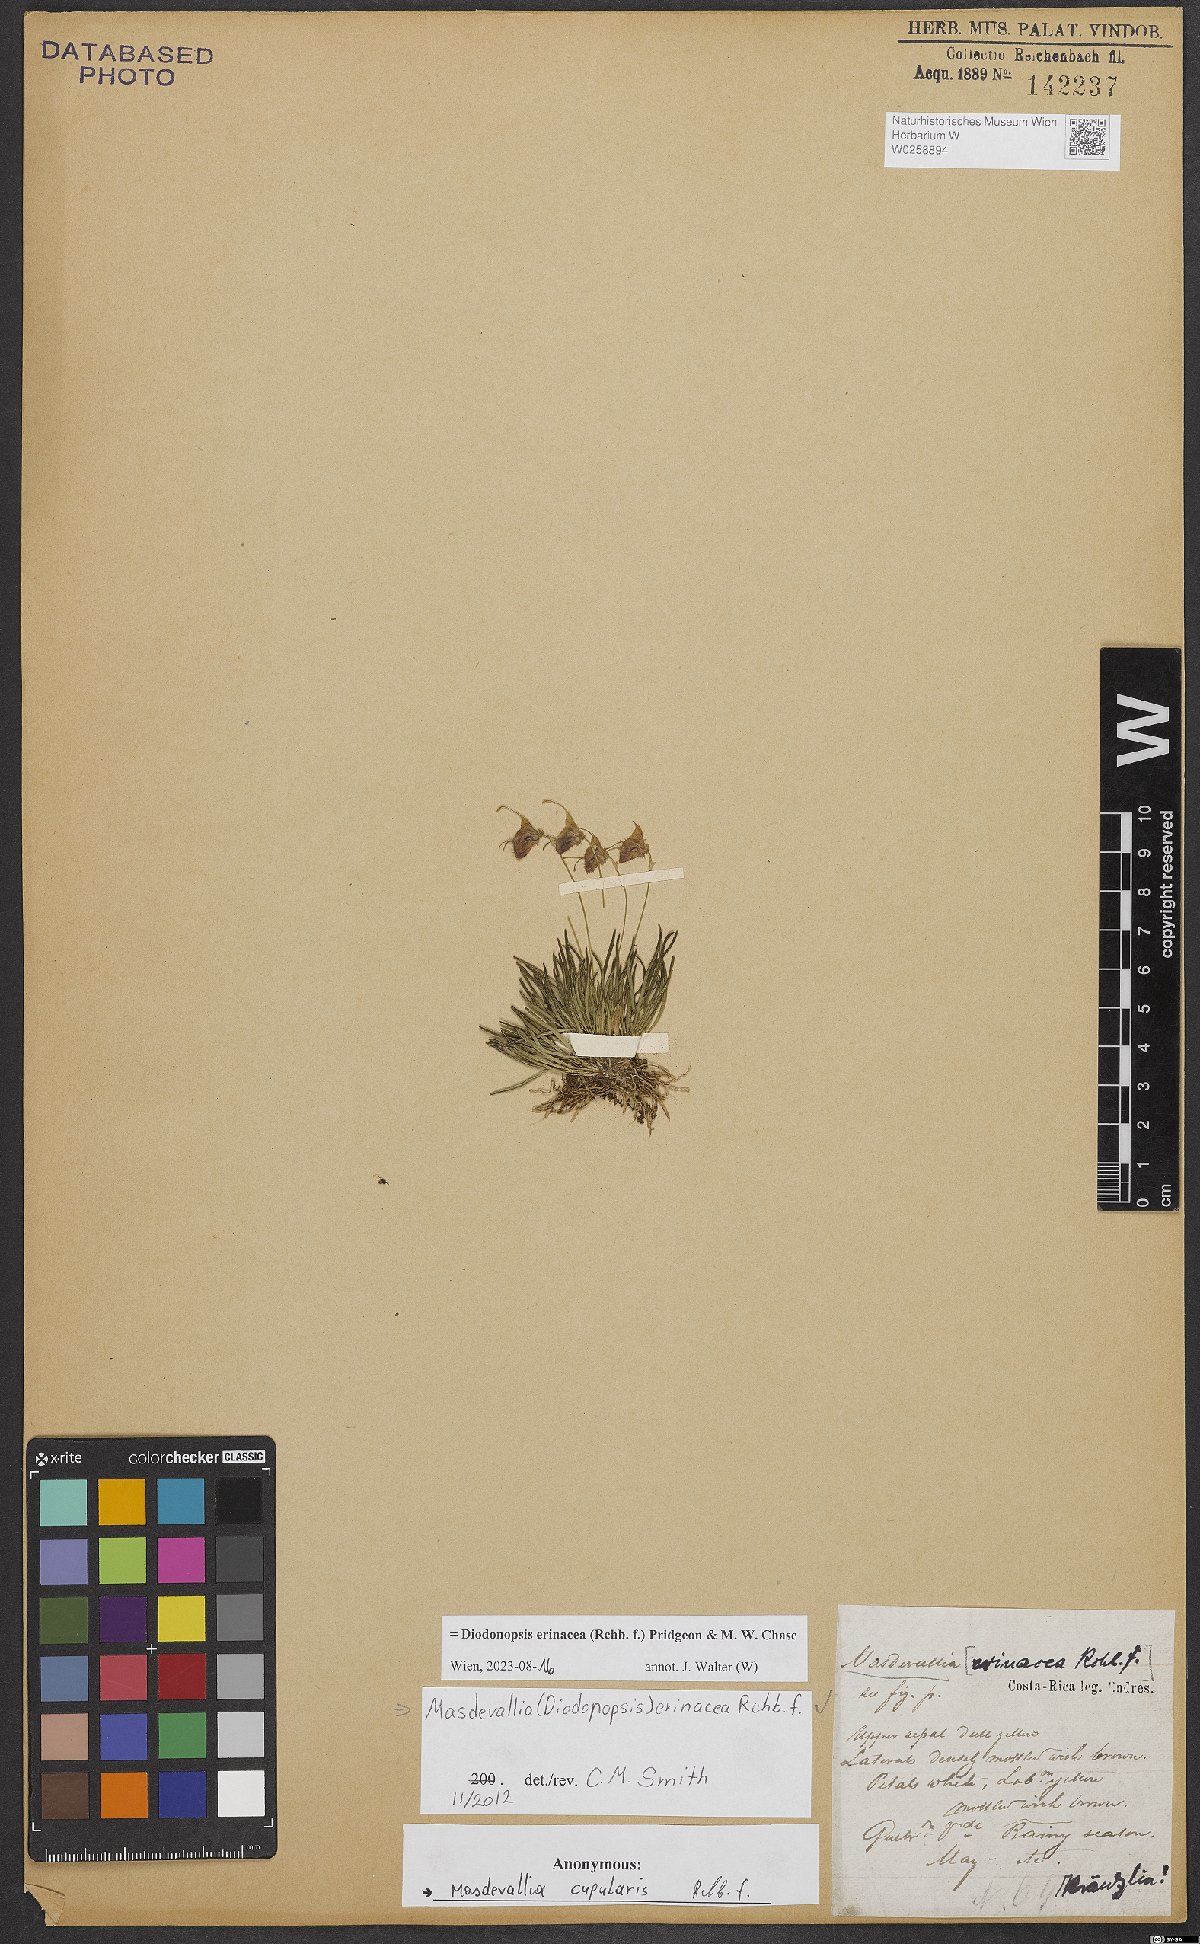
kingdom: Plantae
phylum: Tracheophyta
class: Liliopsida
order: Asparagales
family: Orchidaceae
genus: Diodonopsis
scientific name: Diodonopsis erinacea
